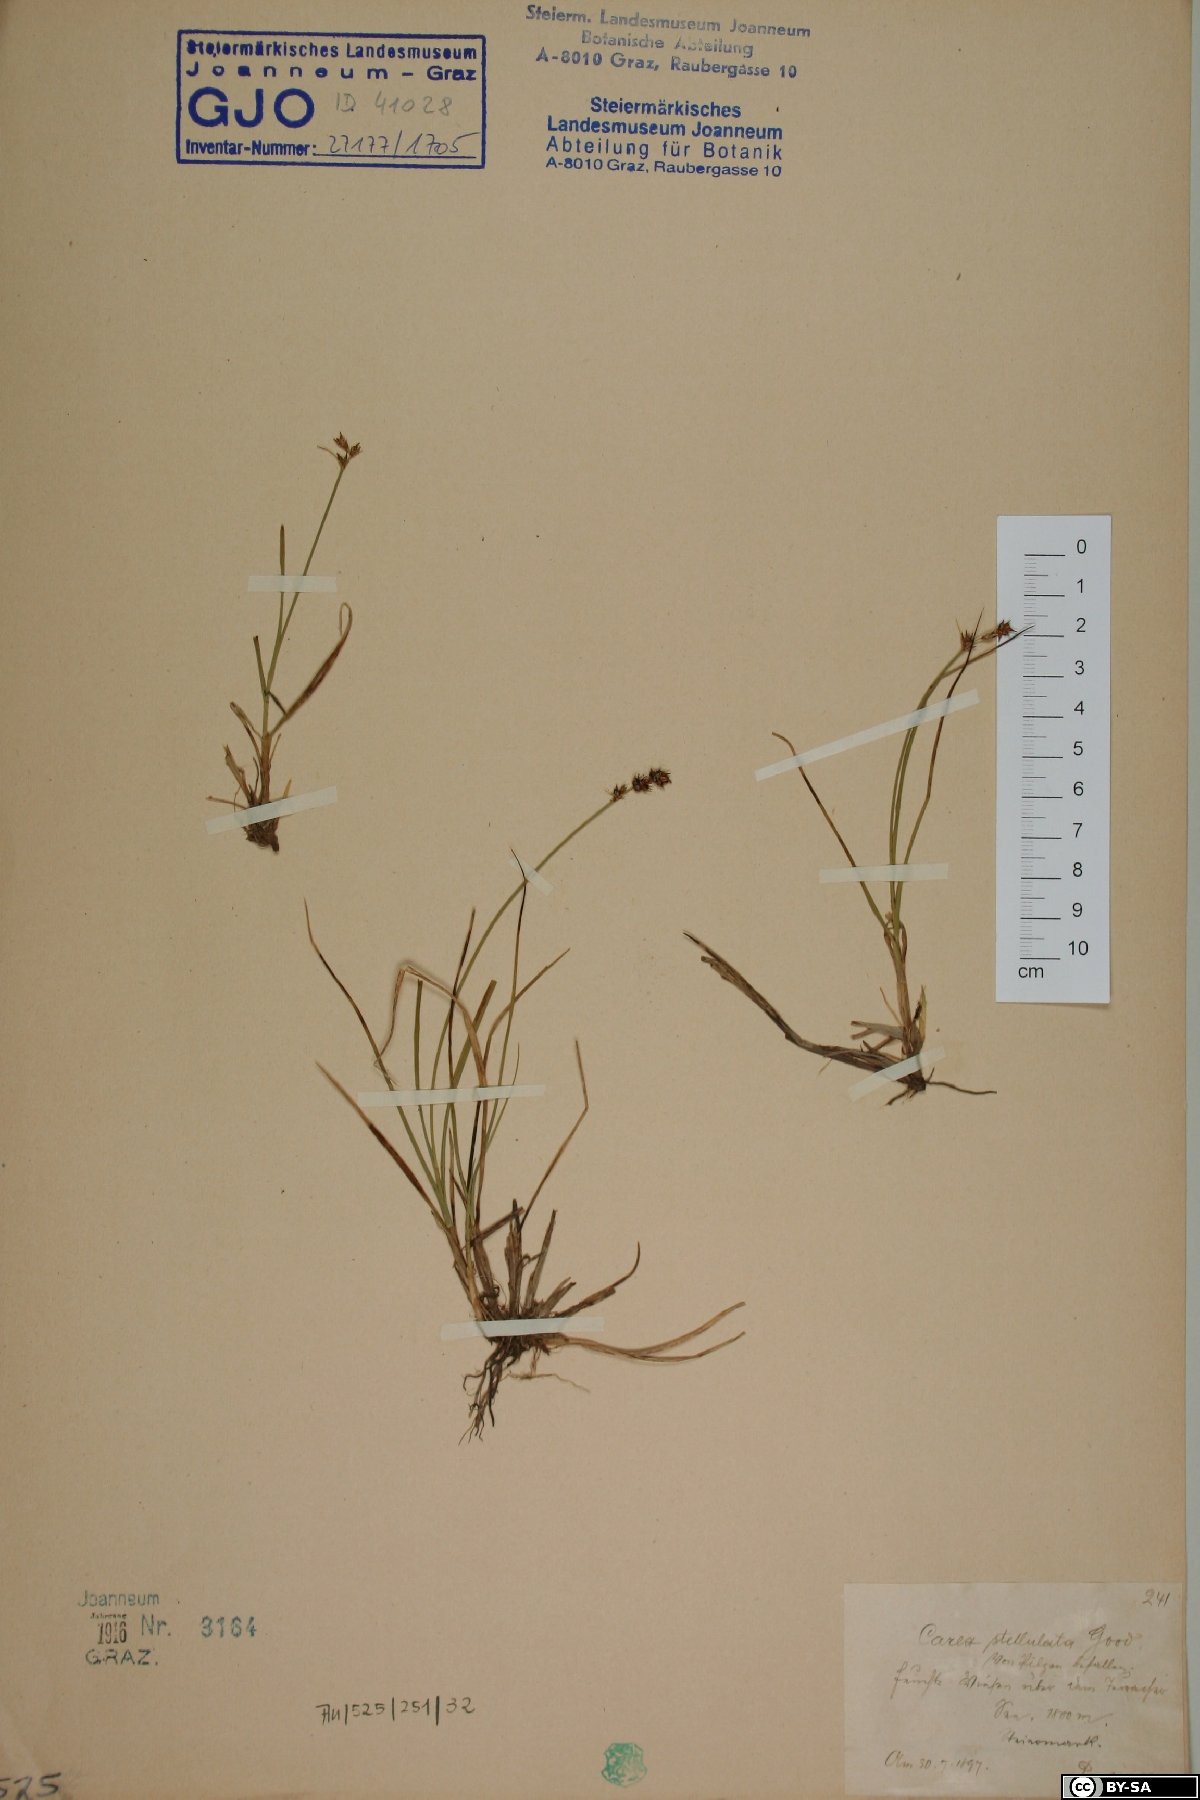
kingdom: Plantae
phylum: Tracheophyta
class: Liliopsida
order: Poales
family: Cyperaceae
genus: Carex
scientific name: Carex echinata
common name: Star sedge
